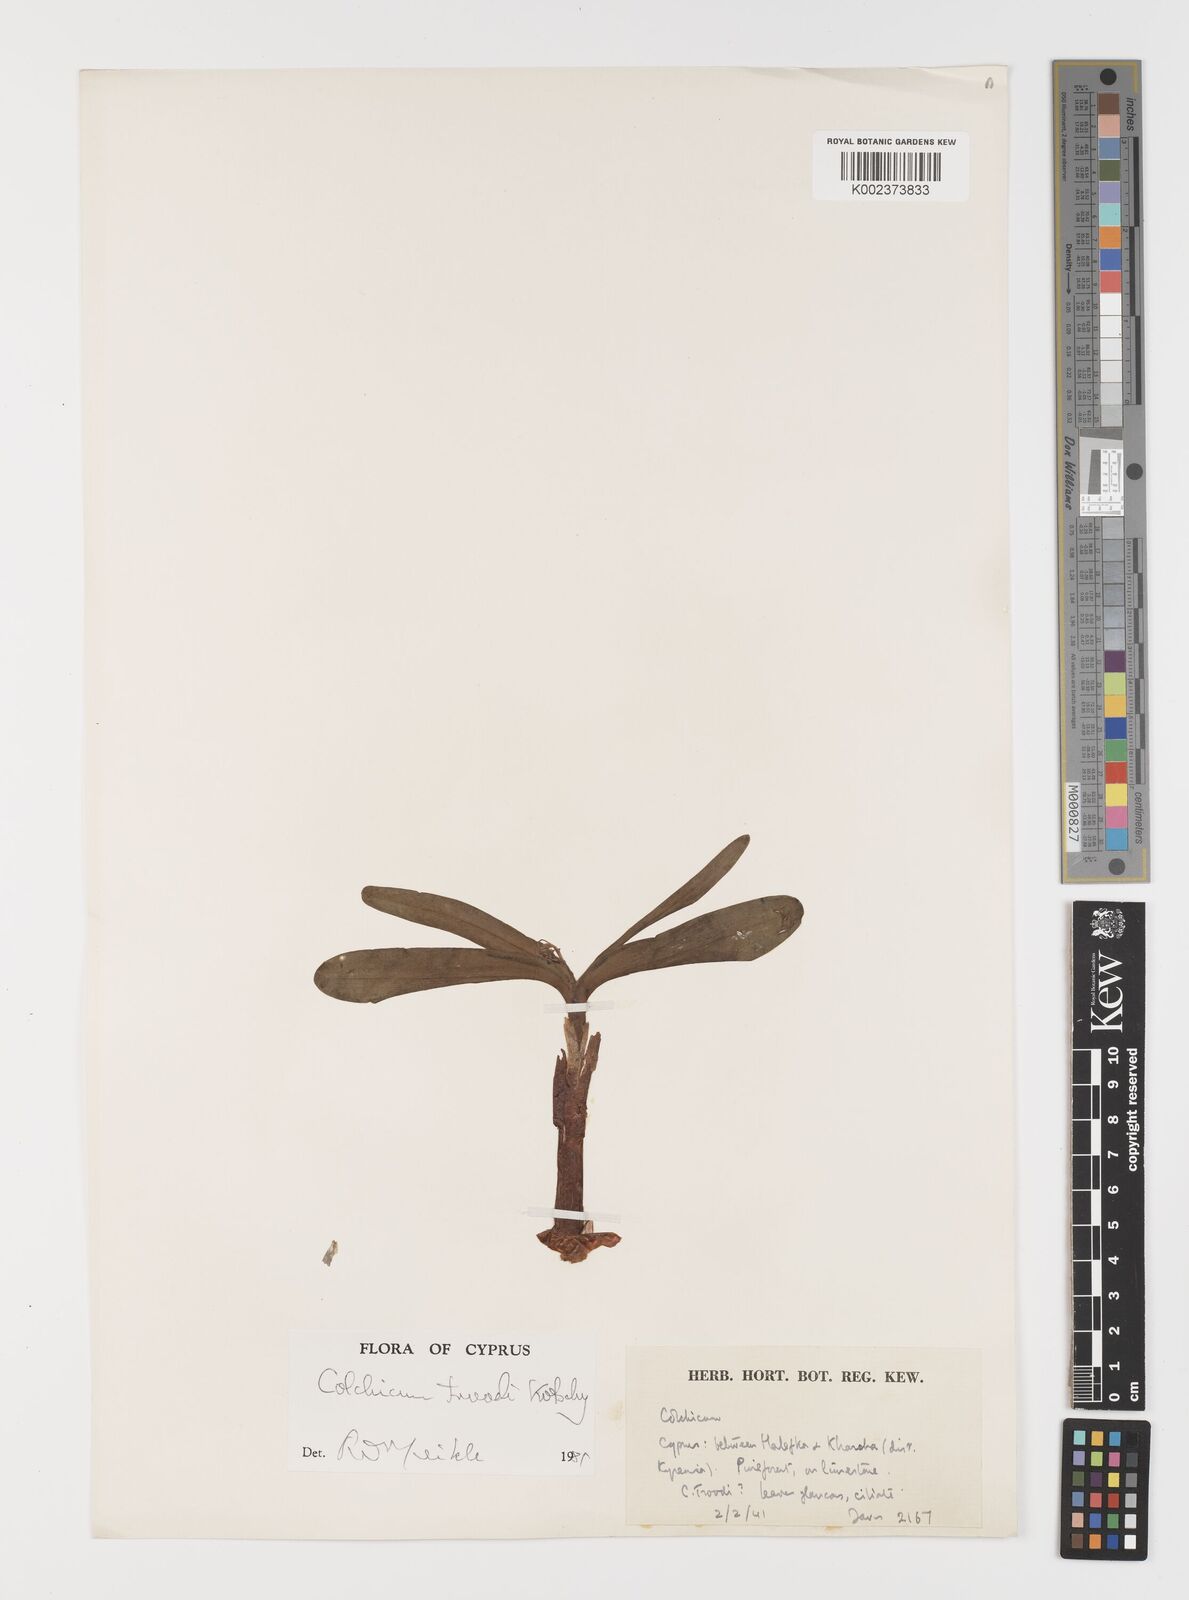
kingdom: Plantae
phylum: Tracheophyta
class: Liliopsida
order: Liliales
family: Colchicaceae
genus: Colchicum
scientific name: Colchicum troodi
